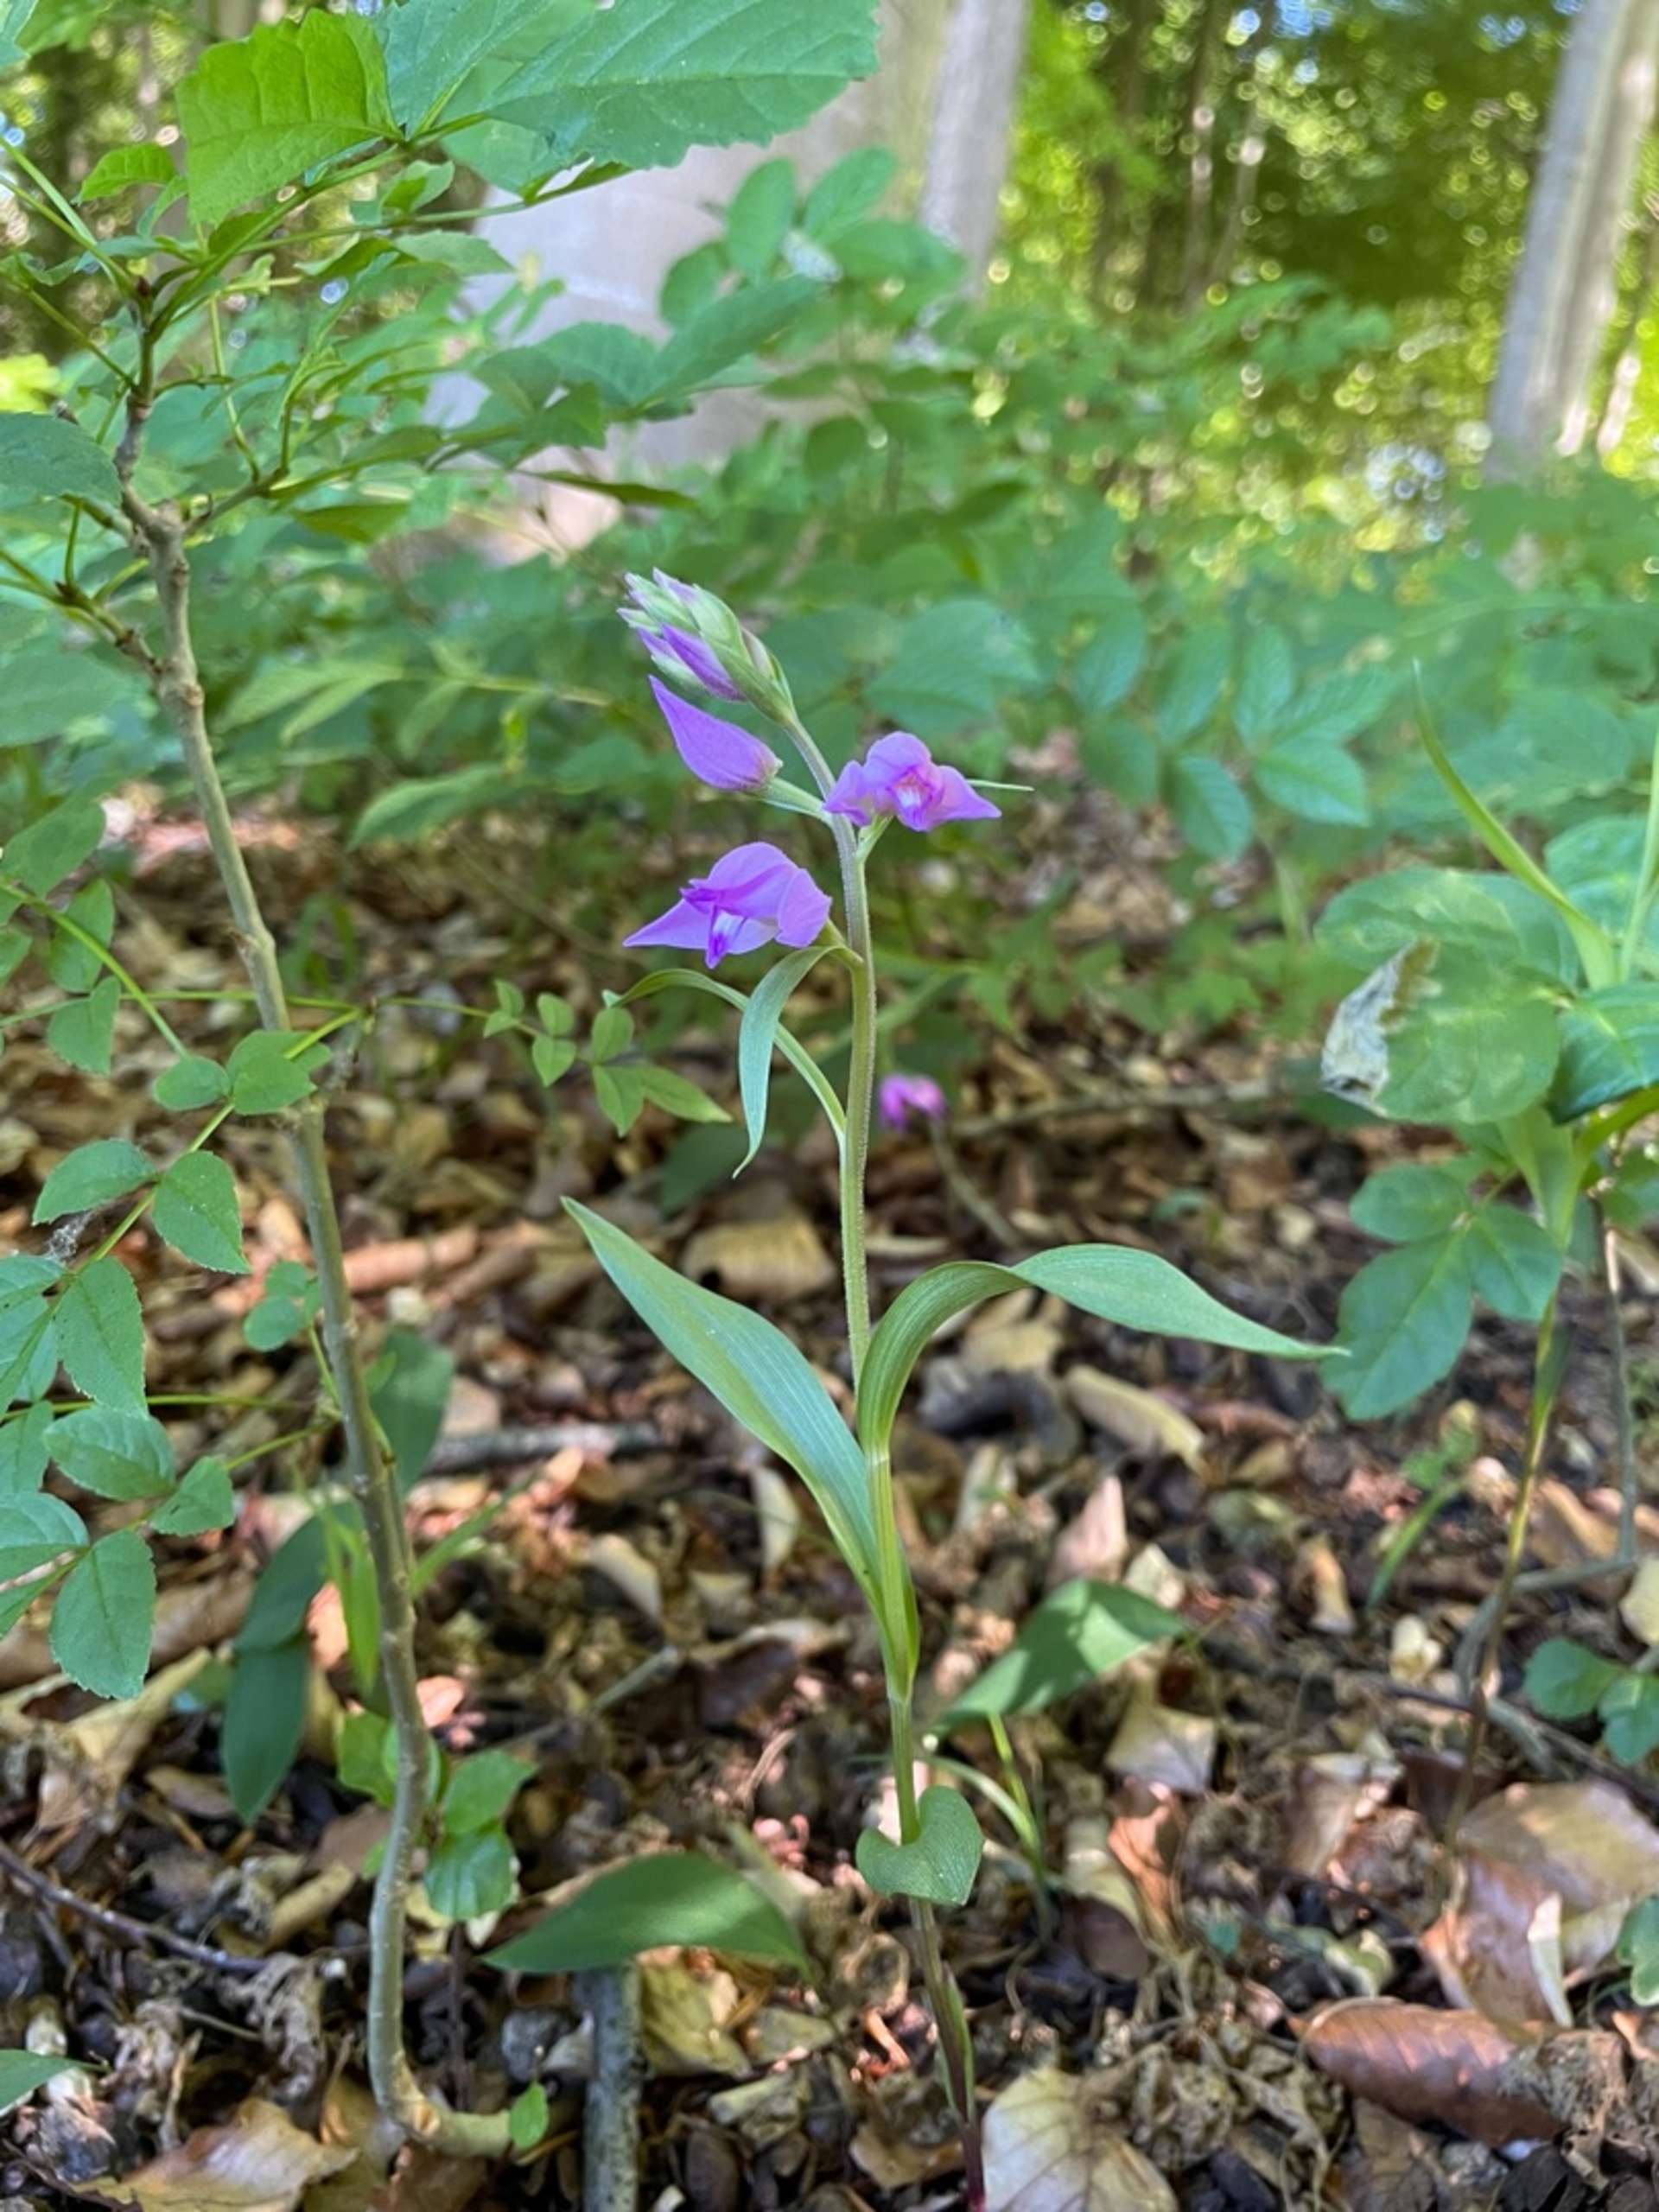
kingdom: Plantae
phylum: Tracheophyta
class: Liliopsida
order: Asparagales
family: Orchidaceae
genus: Cephalanthera
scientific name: Cephalanthera rubra
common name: Rød skovlilje
